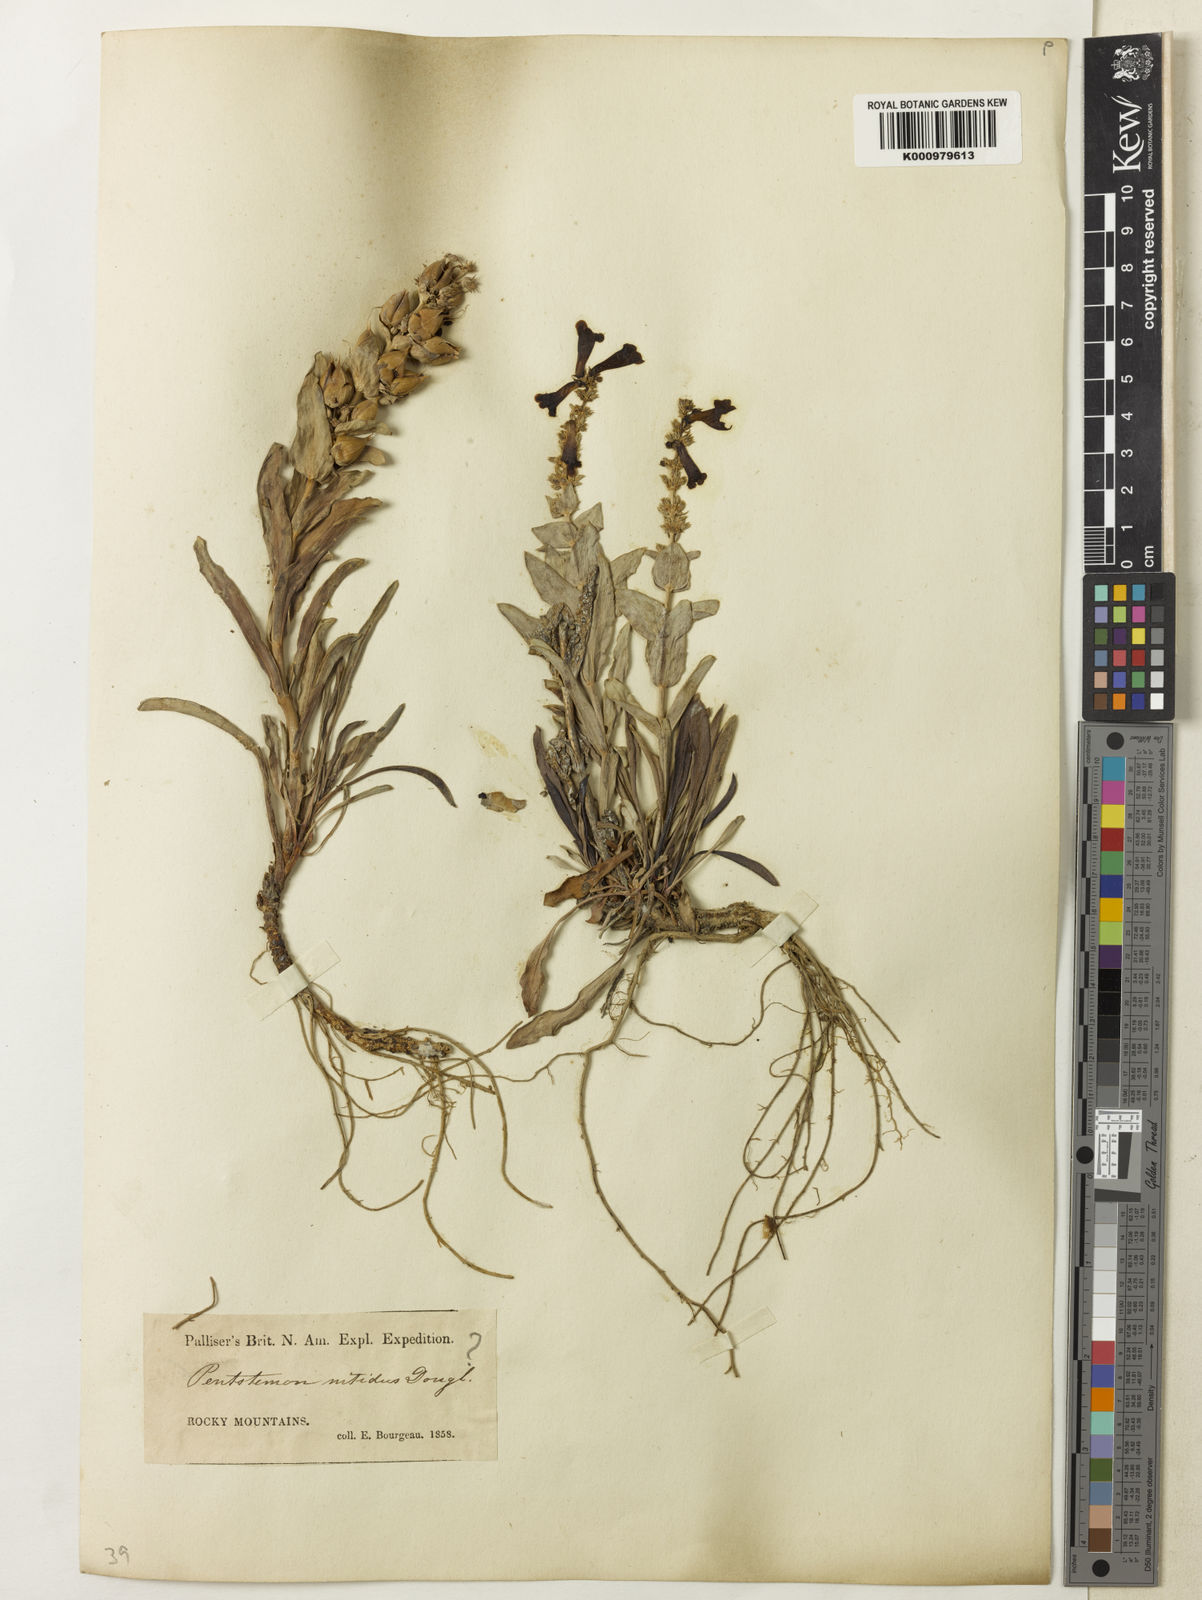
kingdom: Plantae
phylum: Tracheophyta
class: Magnoliopsida
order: Lamiales
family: Plantaginaceae
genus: Penstemon
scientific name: Penstemon nitidus
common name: Shining penstemon
